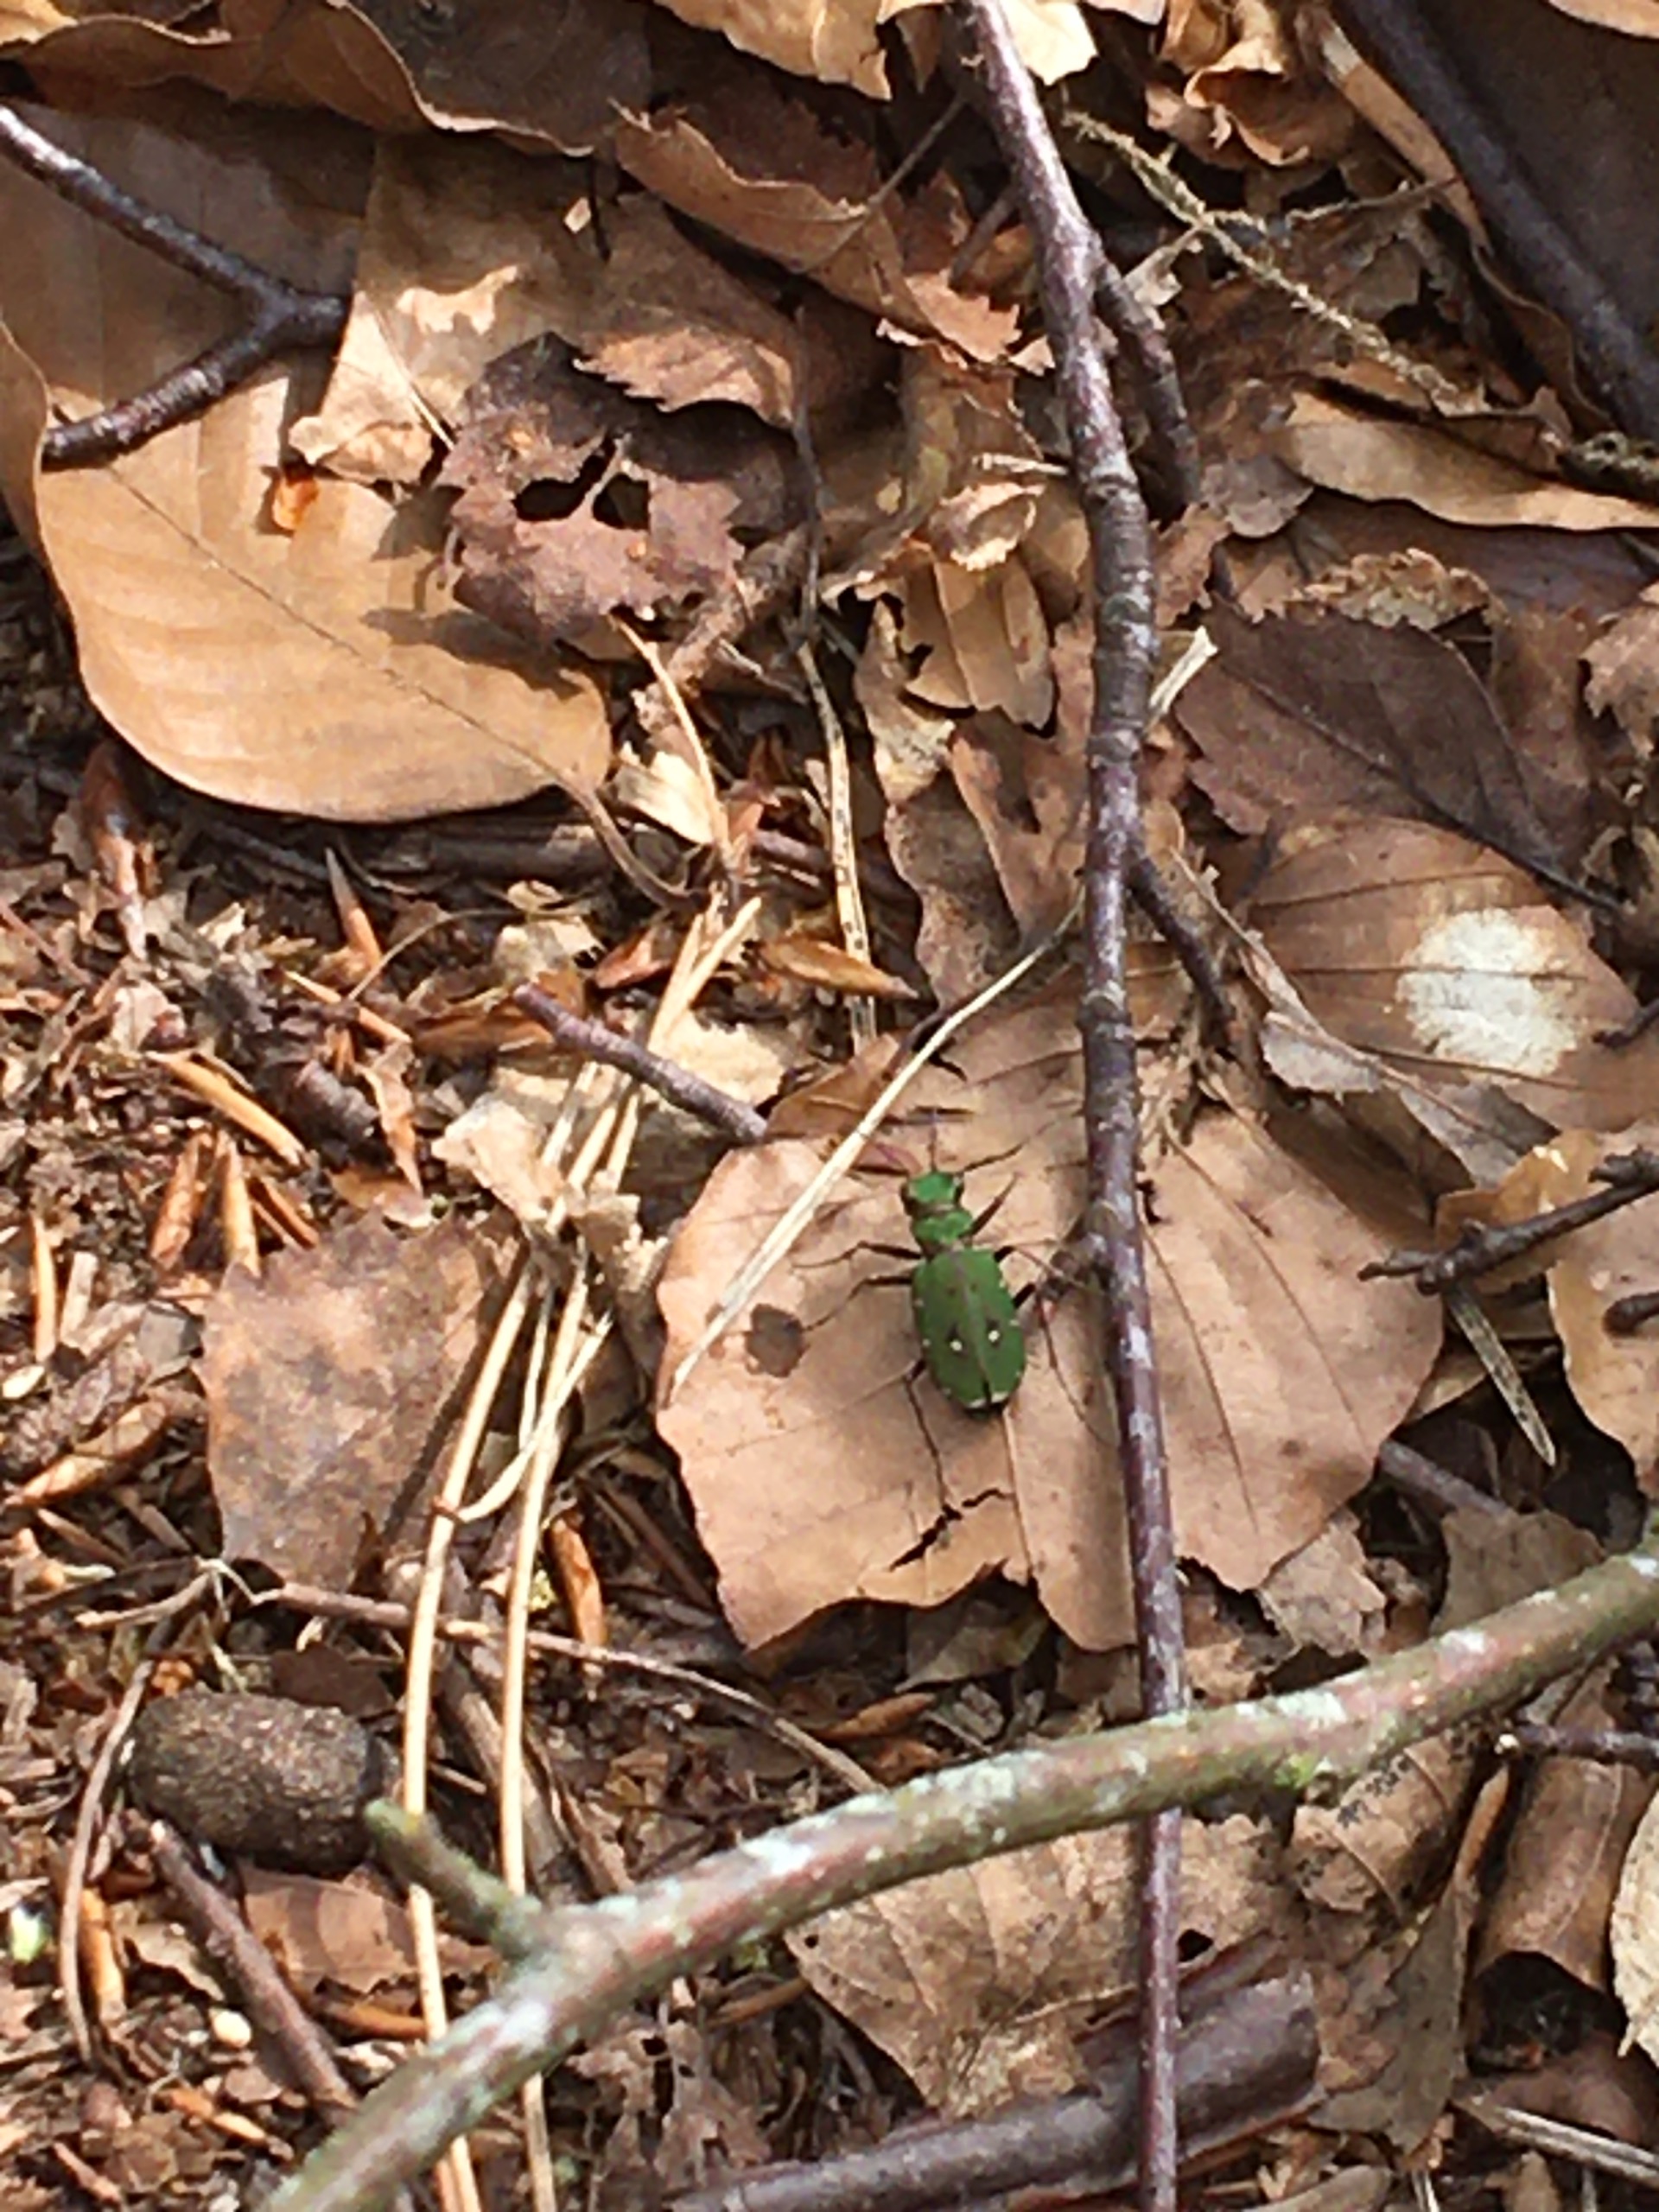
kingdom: Animalia
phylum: Arthropoda
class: Insecta
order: Coleoptera
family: Carabidae
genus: Cicindela
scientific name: Cicindela campestris
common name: Grøn sandspringer
